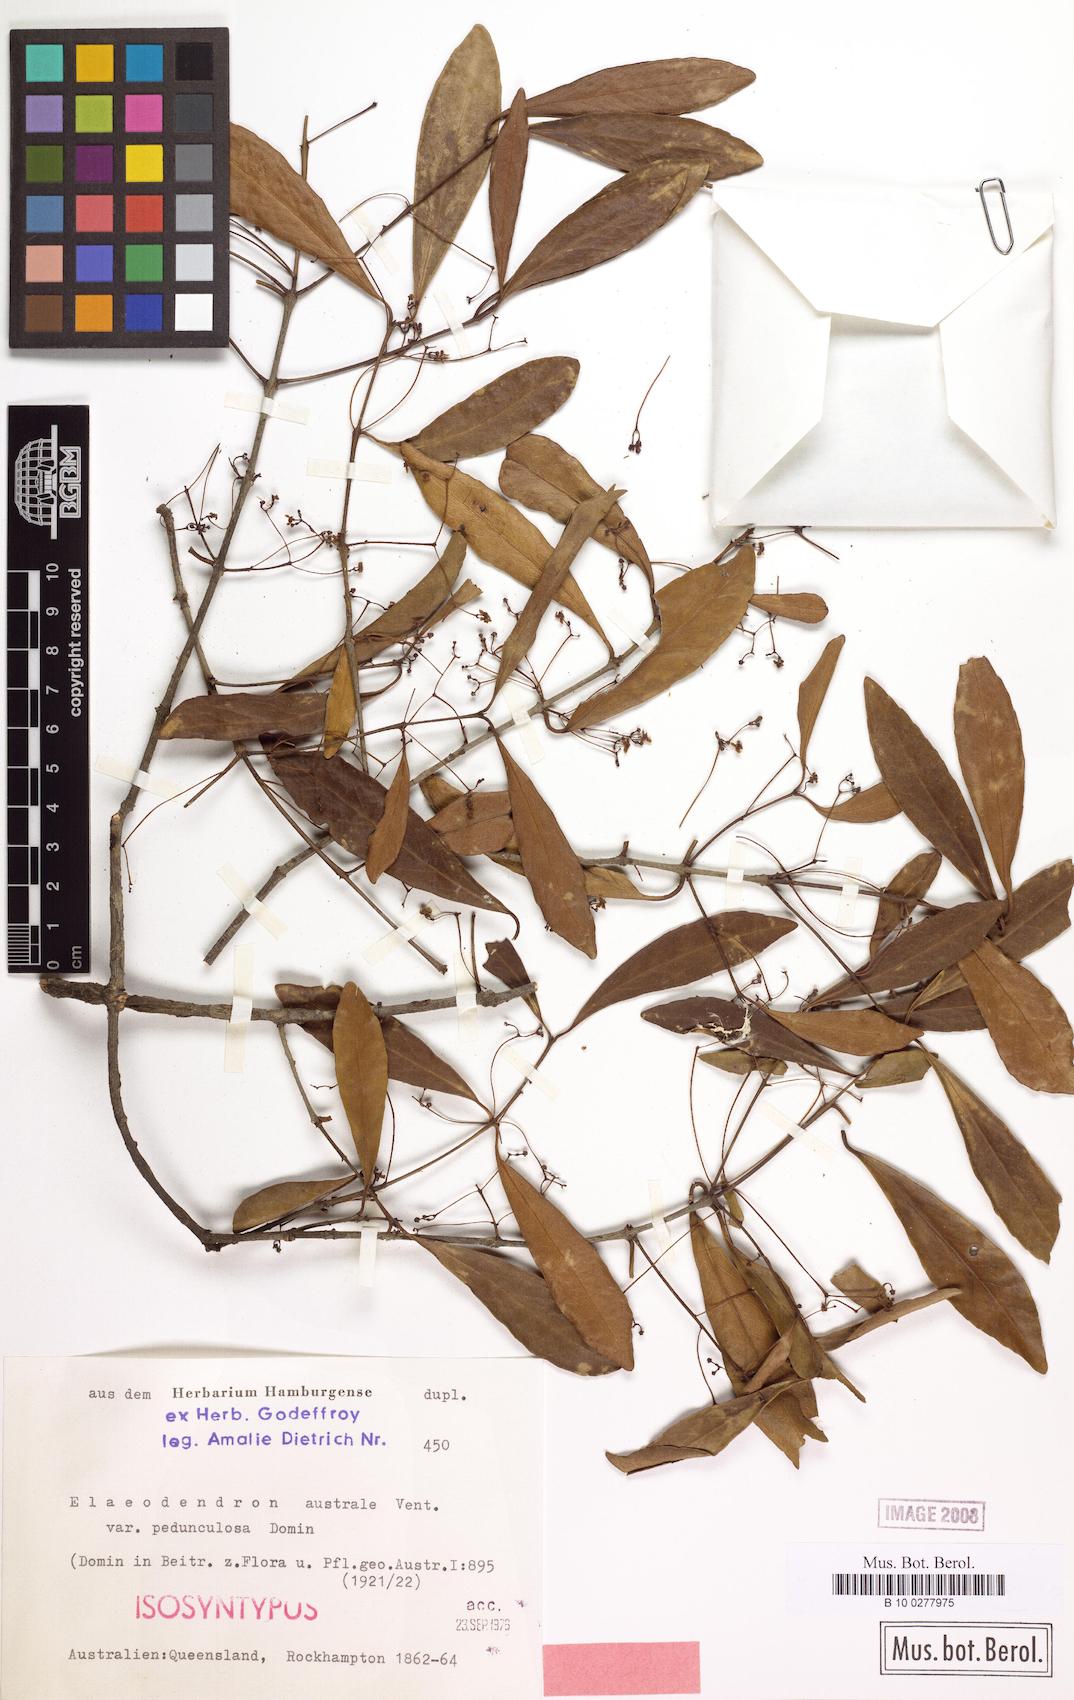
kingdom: Plantae
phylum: Tracheophyta
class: Magnoliopsida
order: Celastrales
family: Celastraceae
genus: Elaeodendron
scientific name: Elaeodendron australe
